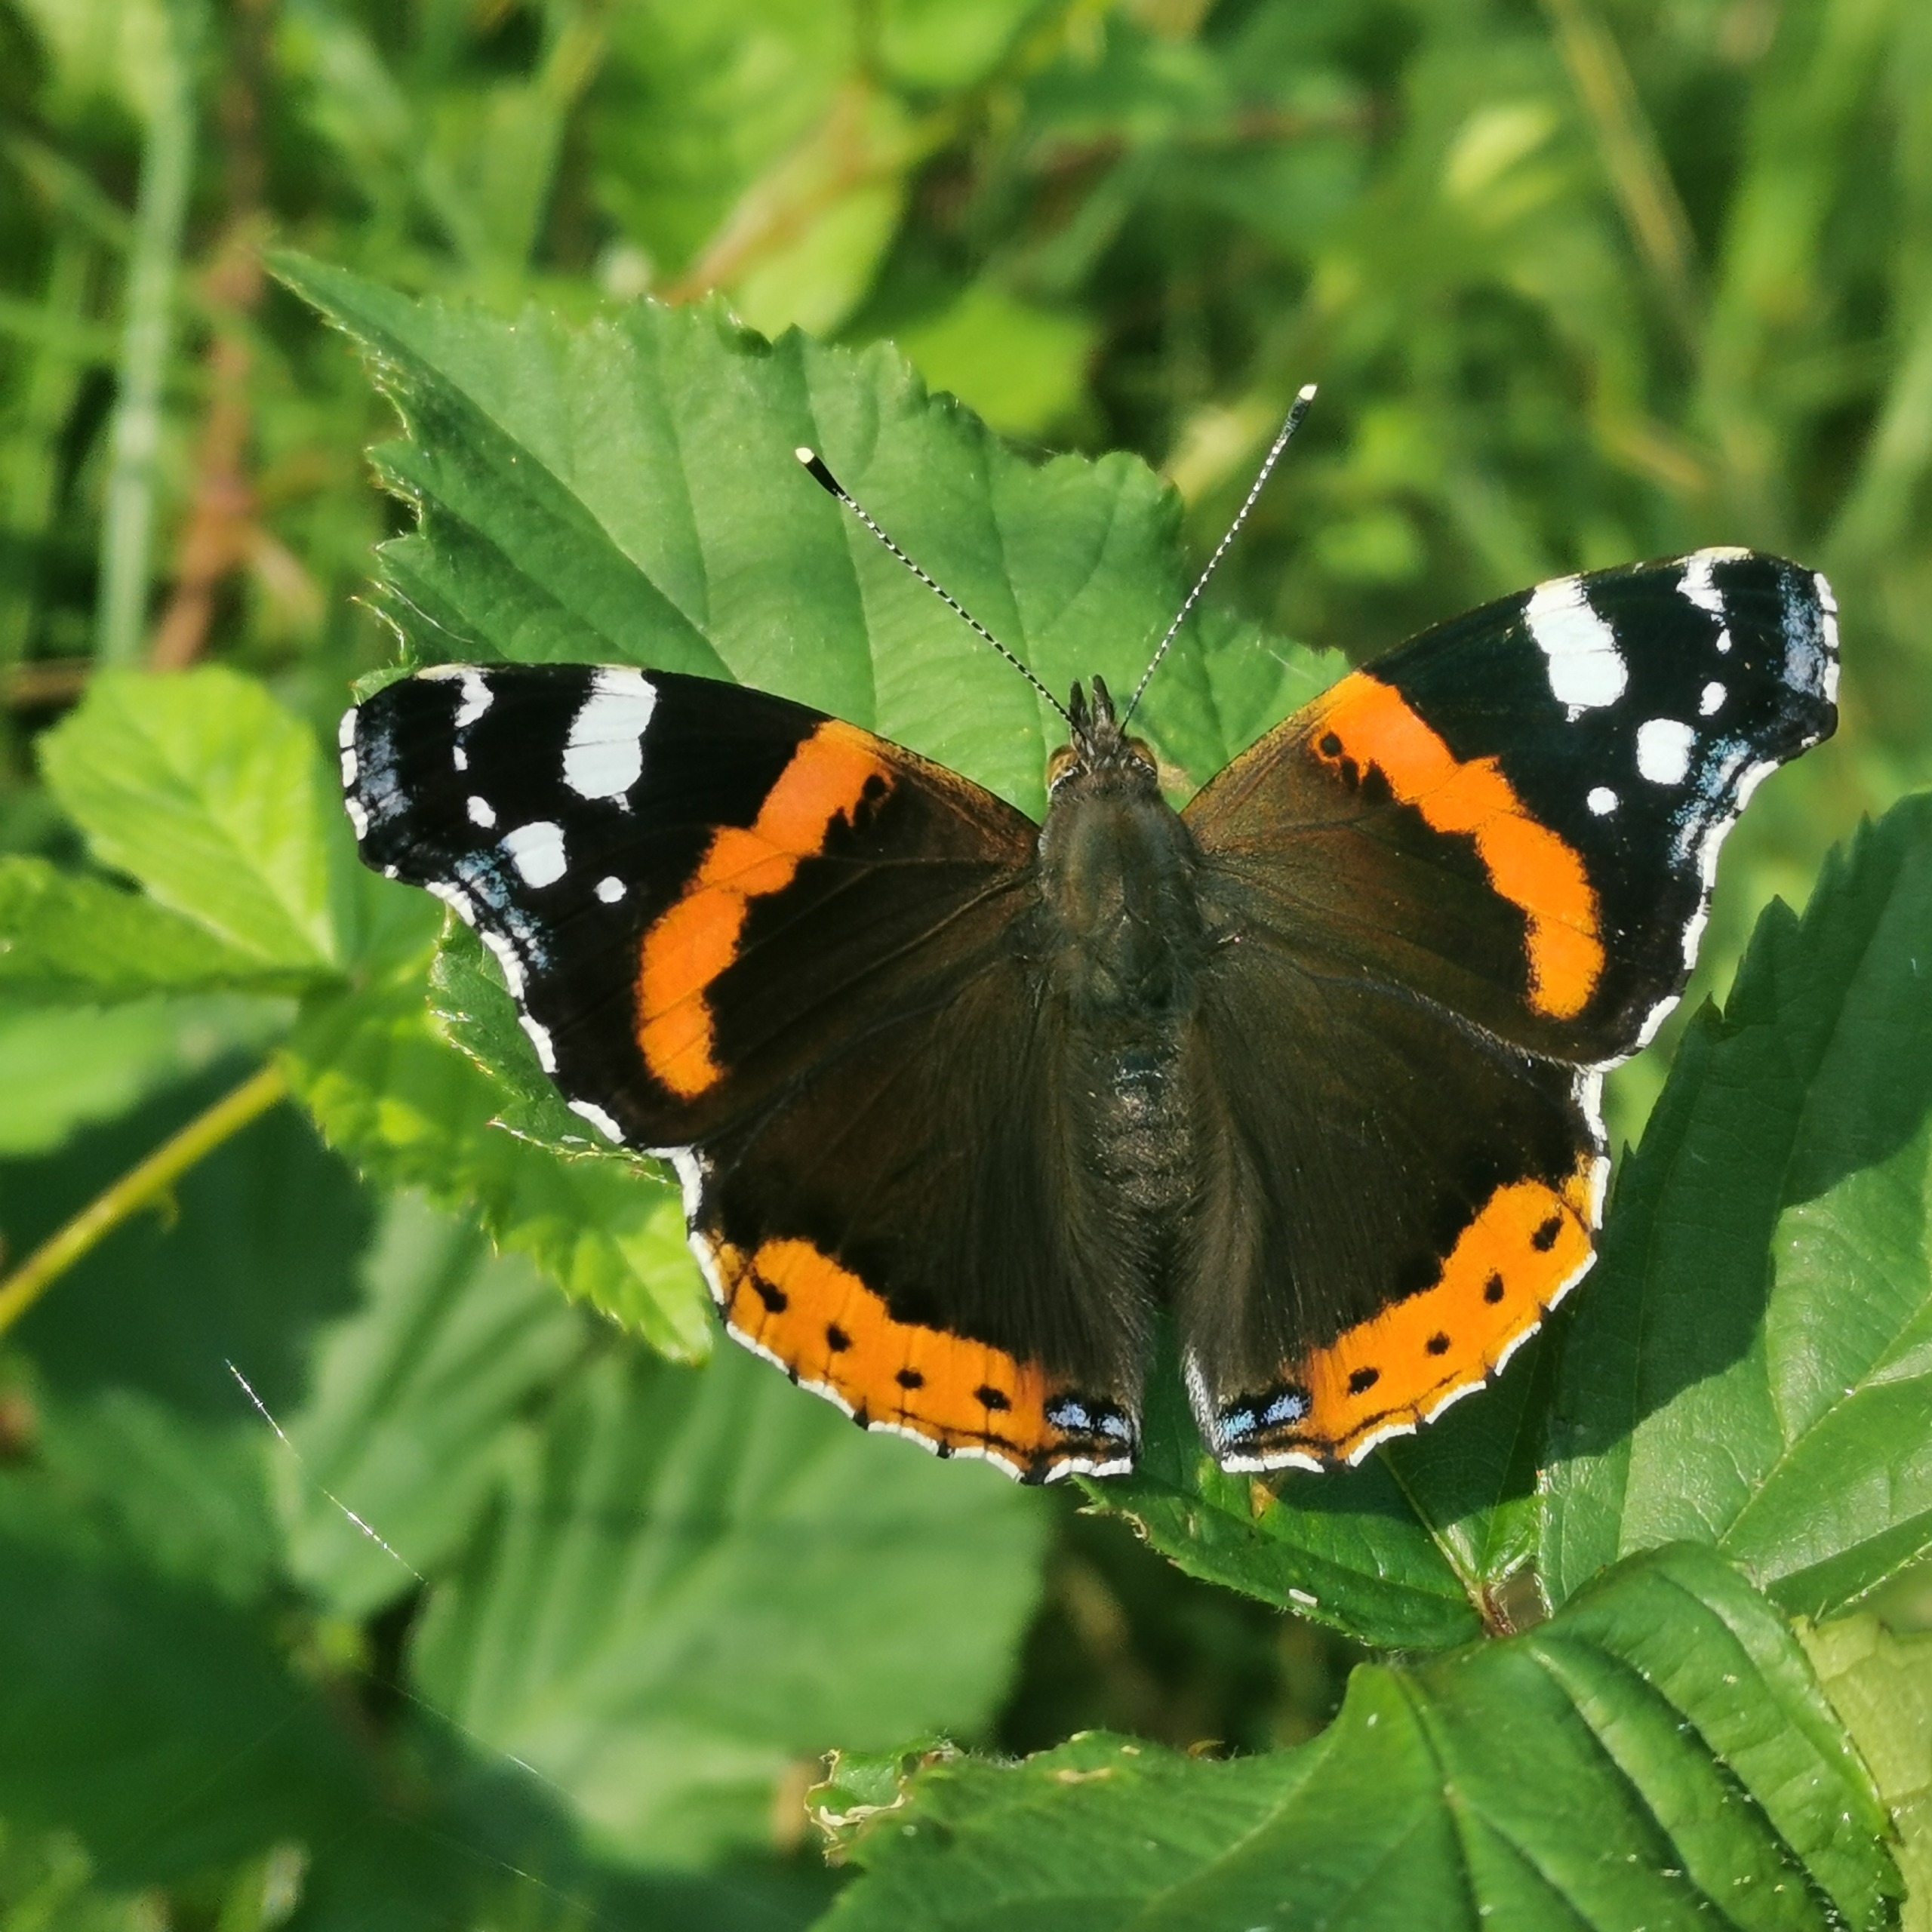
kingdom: Animalia
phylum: Arthropoda
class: Insecta
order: Lepidoptera
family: Nymphalidae
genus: Vanessa
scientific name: Vanessa atalanta
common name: Admiral
